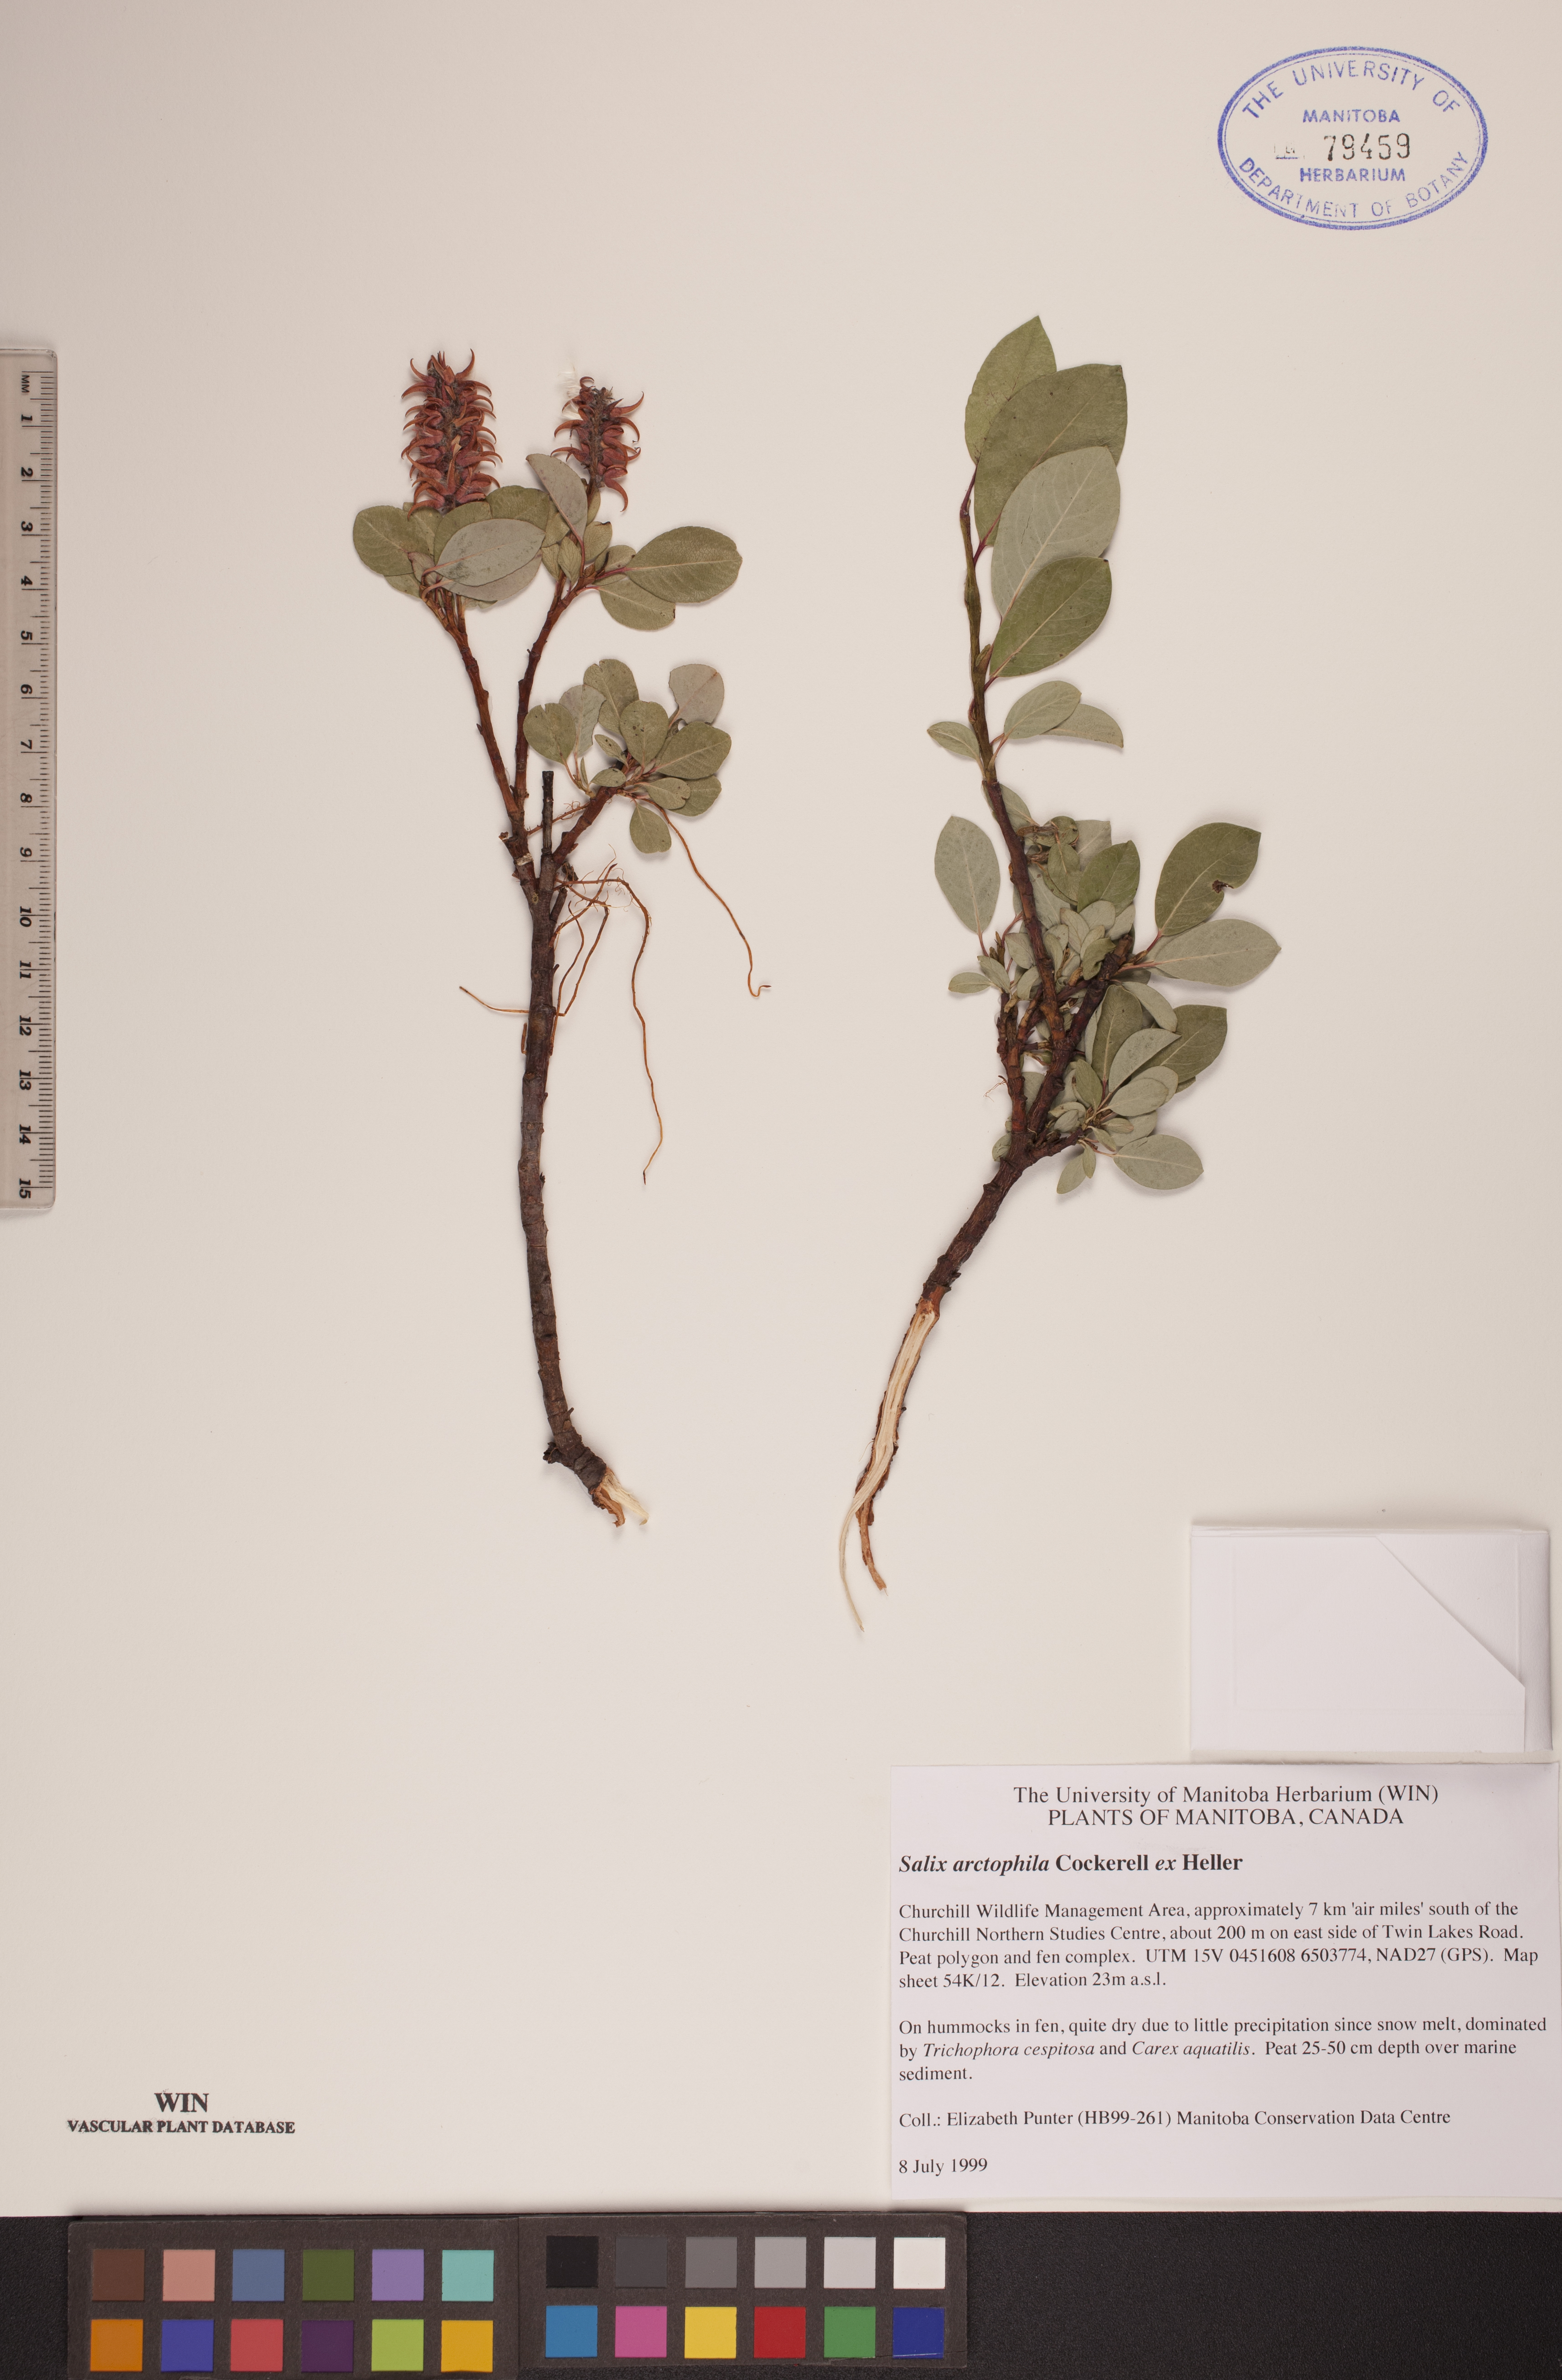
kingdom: Plantae
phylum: Tracheophyta
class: Magnoliopsida
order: Malpighiales
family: Salicaceae
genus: Salix
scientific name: Salix arctophila
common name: Greenland willow
